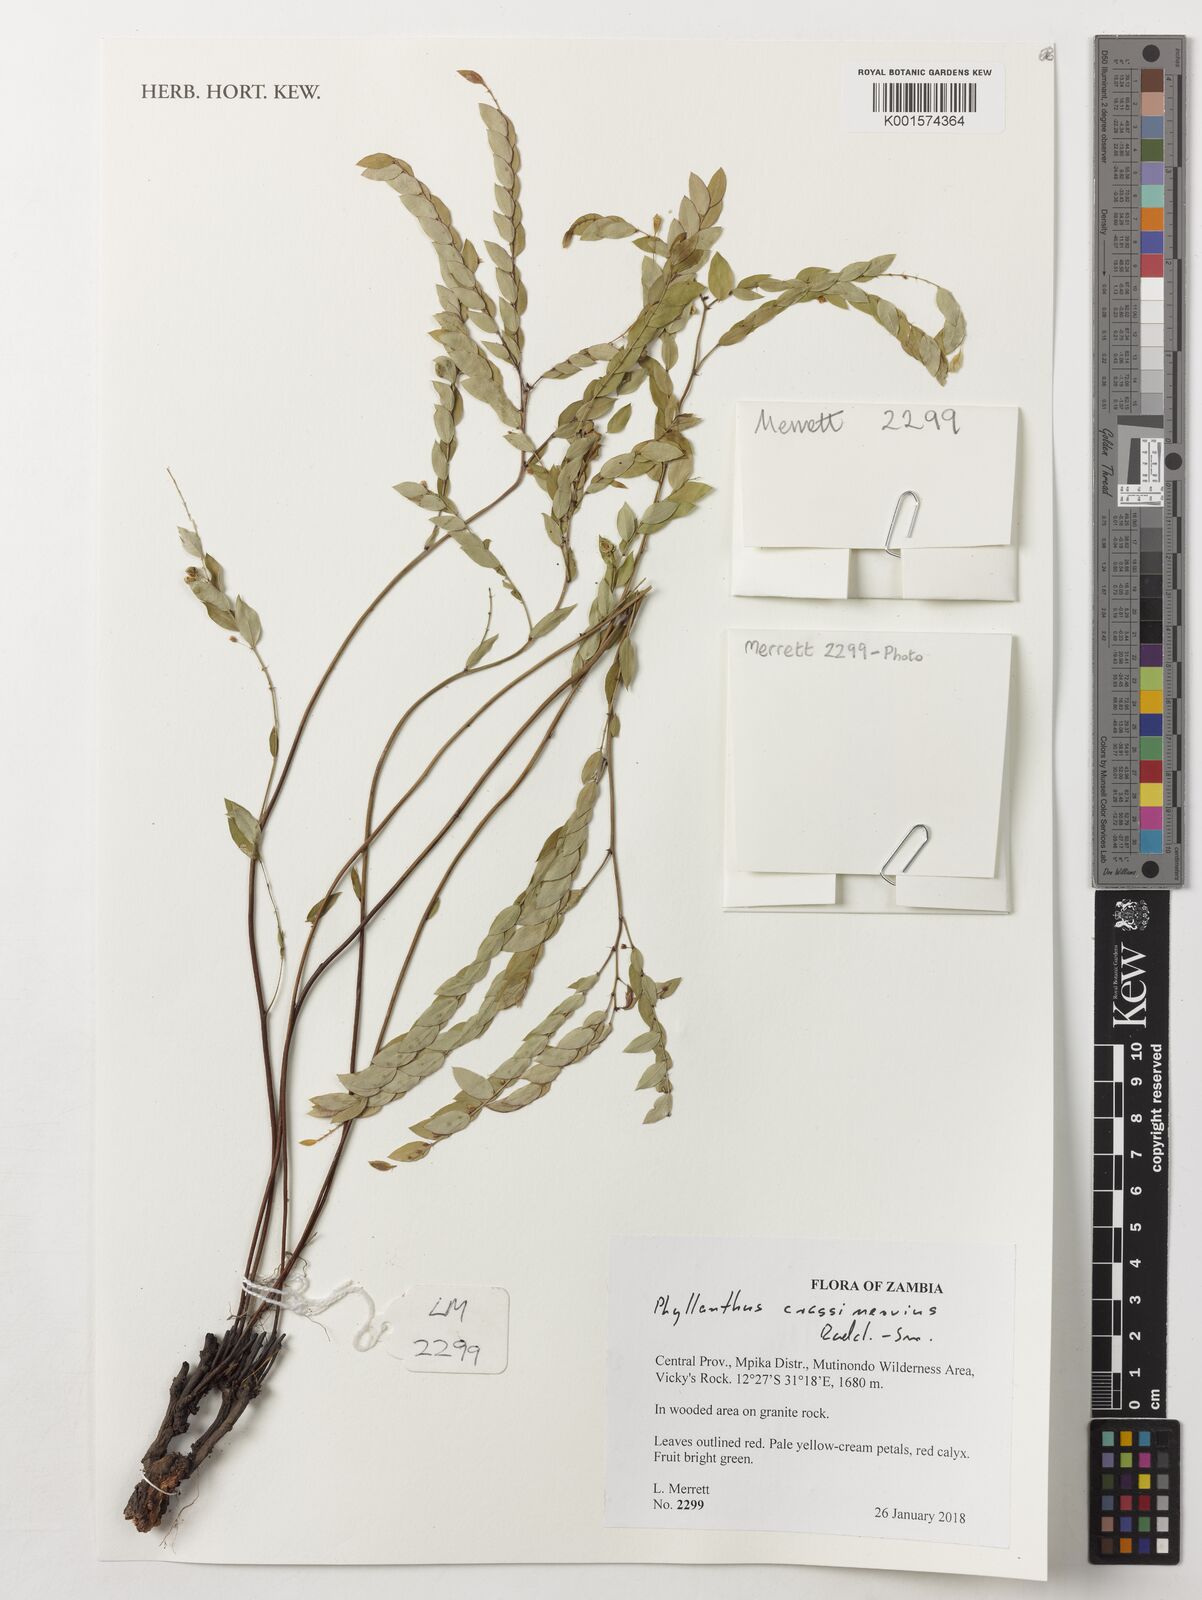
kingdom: Plantae
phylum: Tracheophyta
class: Magnoliopsida
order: Malpighiales
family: Phyllanthaceae
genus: Phyllanthus
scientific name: Phyllanthus crassinervius
